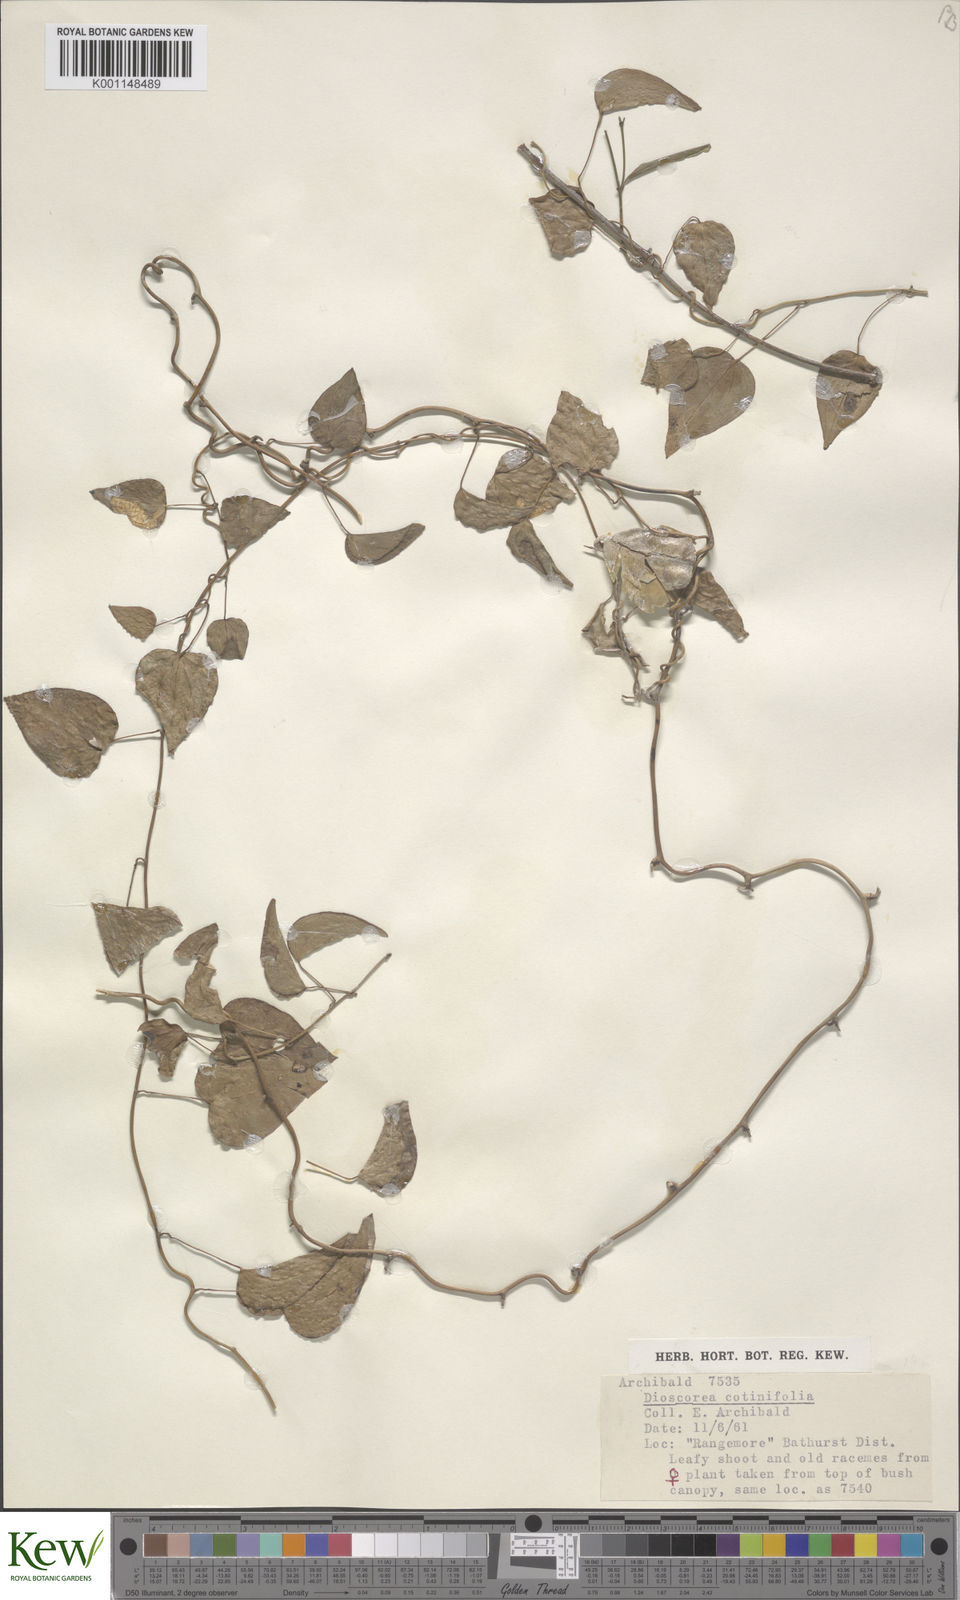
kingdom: Plantae
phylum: Tracheophyta
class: Liliopsida
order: Dioscoreales
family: Dioscoreaceae
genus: Dioscorea
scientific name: Dioscorea cotinifolia
